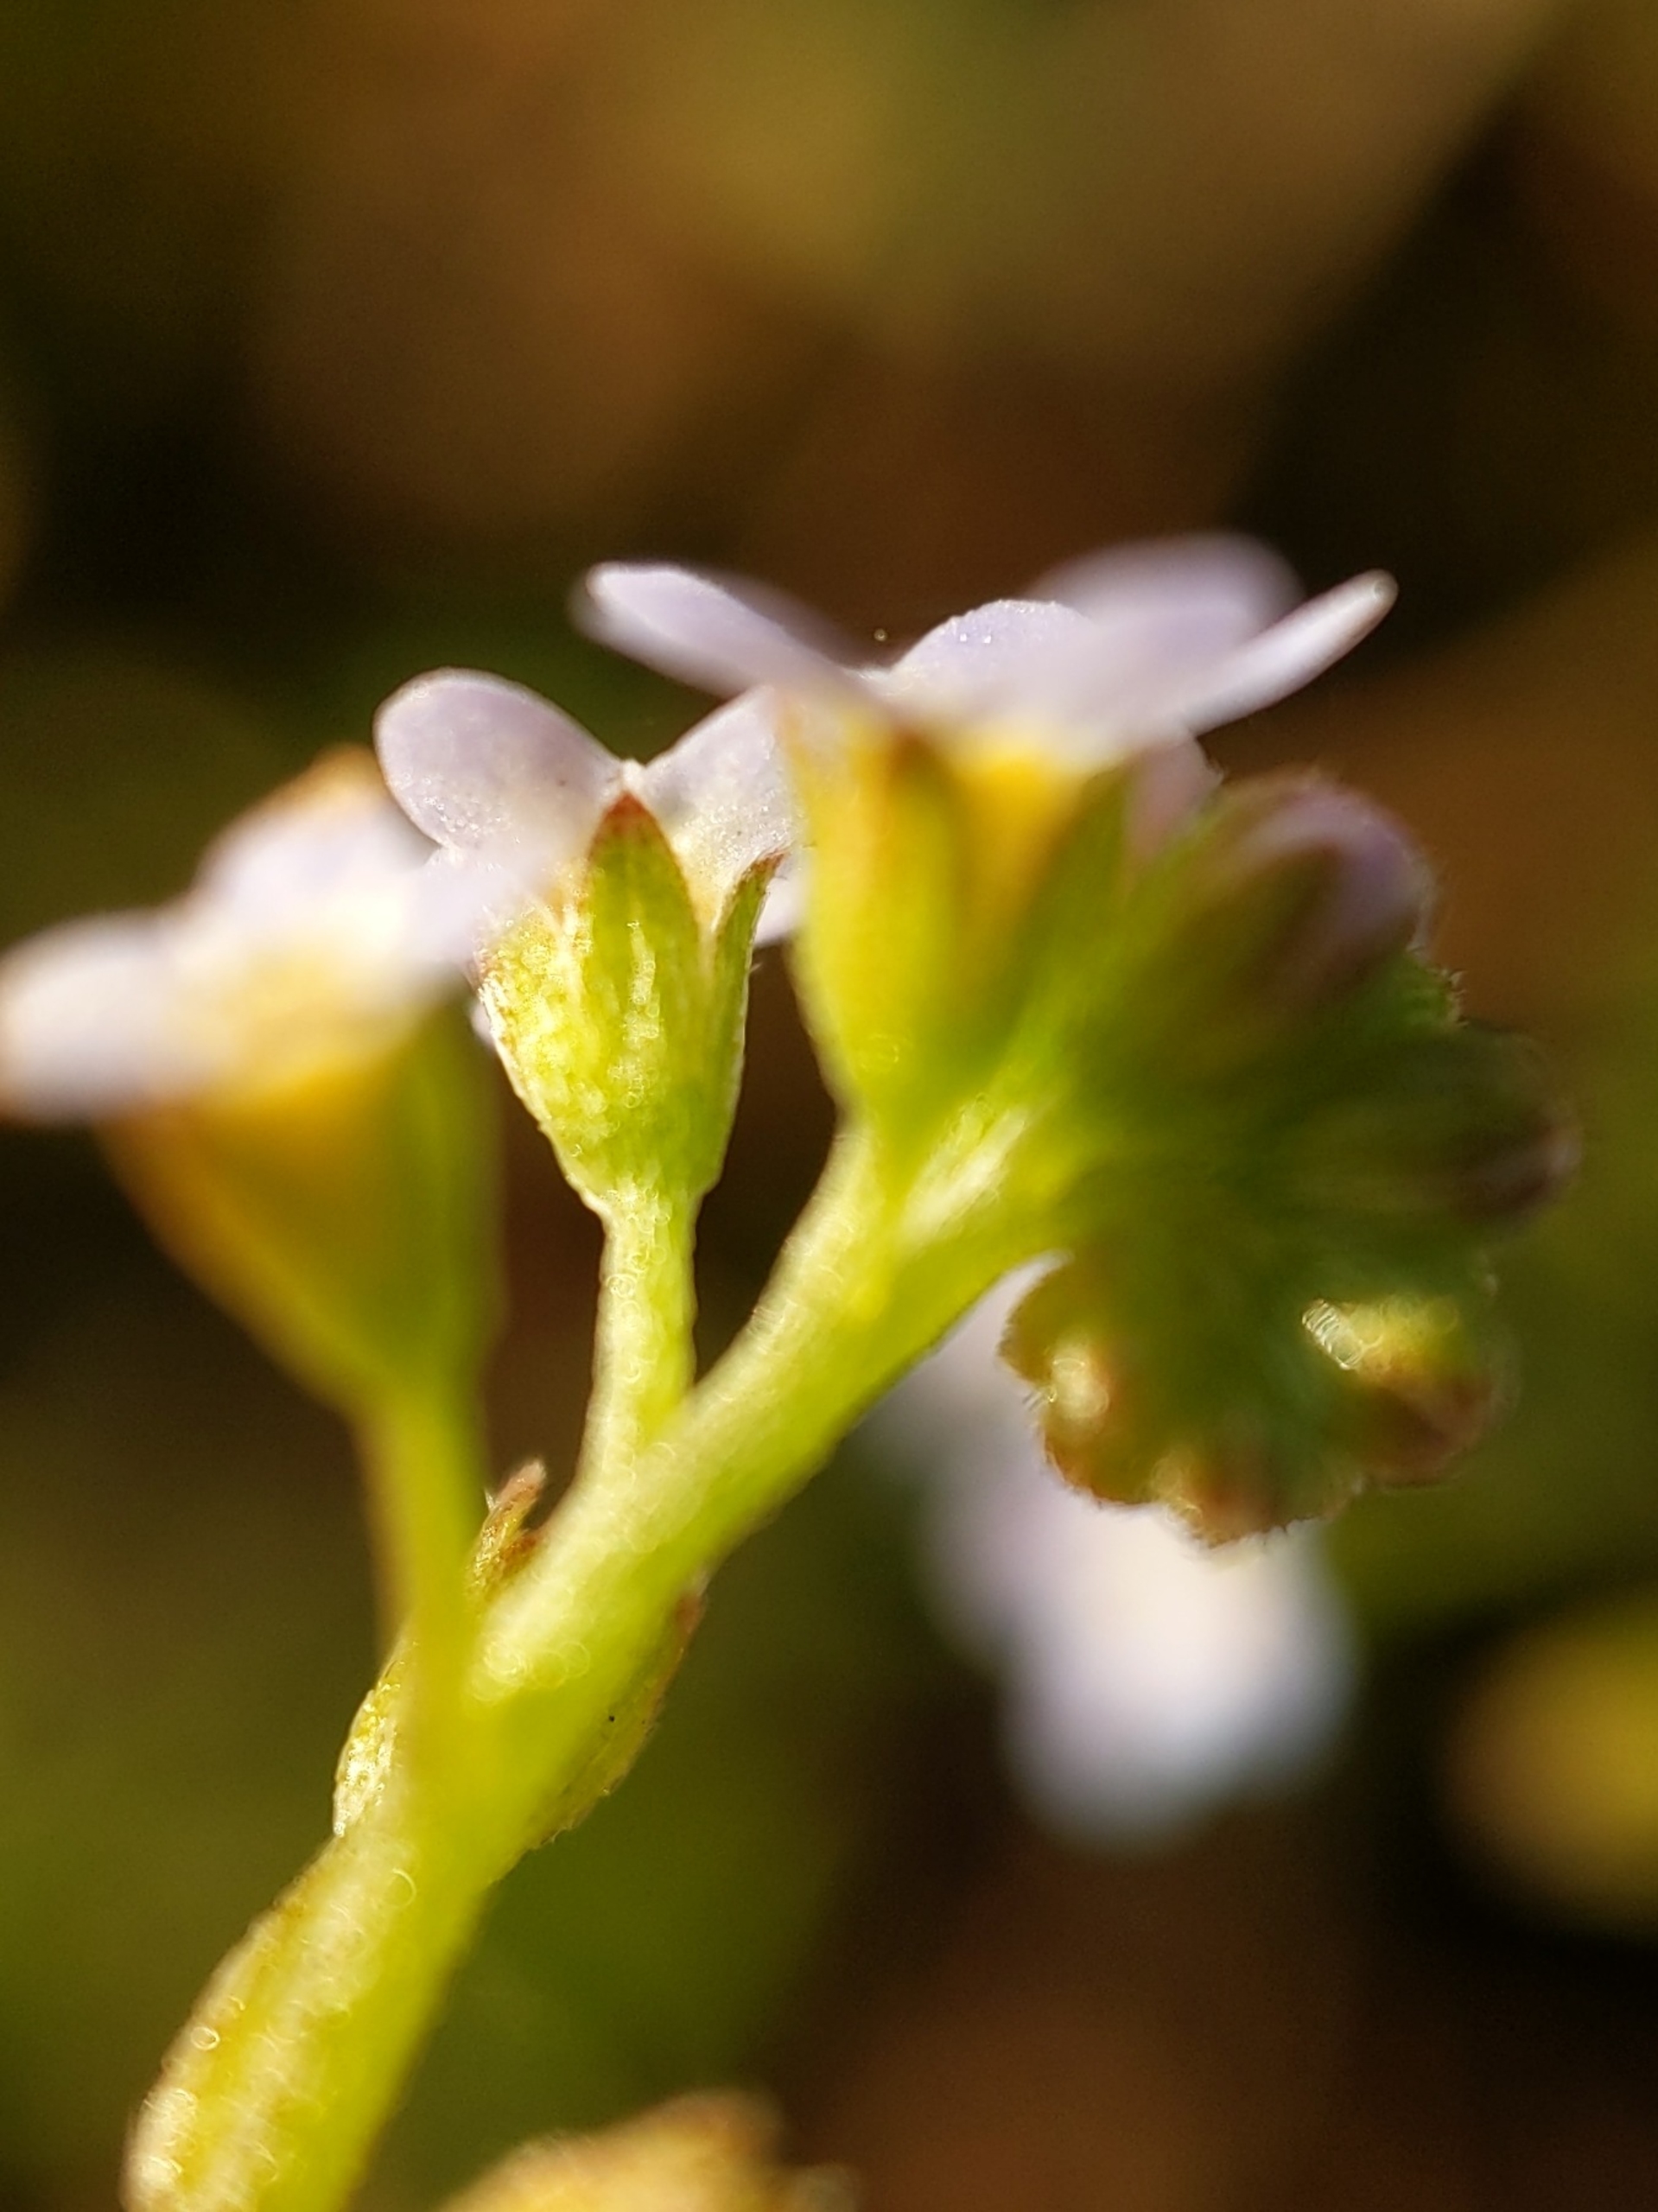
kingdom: Plantae
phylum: Tracheophyta
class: Magnoliopsida
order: Boraginales
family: Boraginaceae
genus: Myosotis
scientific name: Myosotis laxa
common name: Sump-forglemmigej
